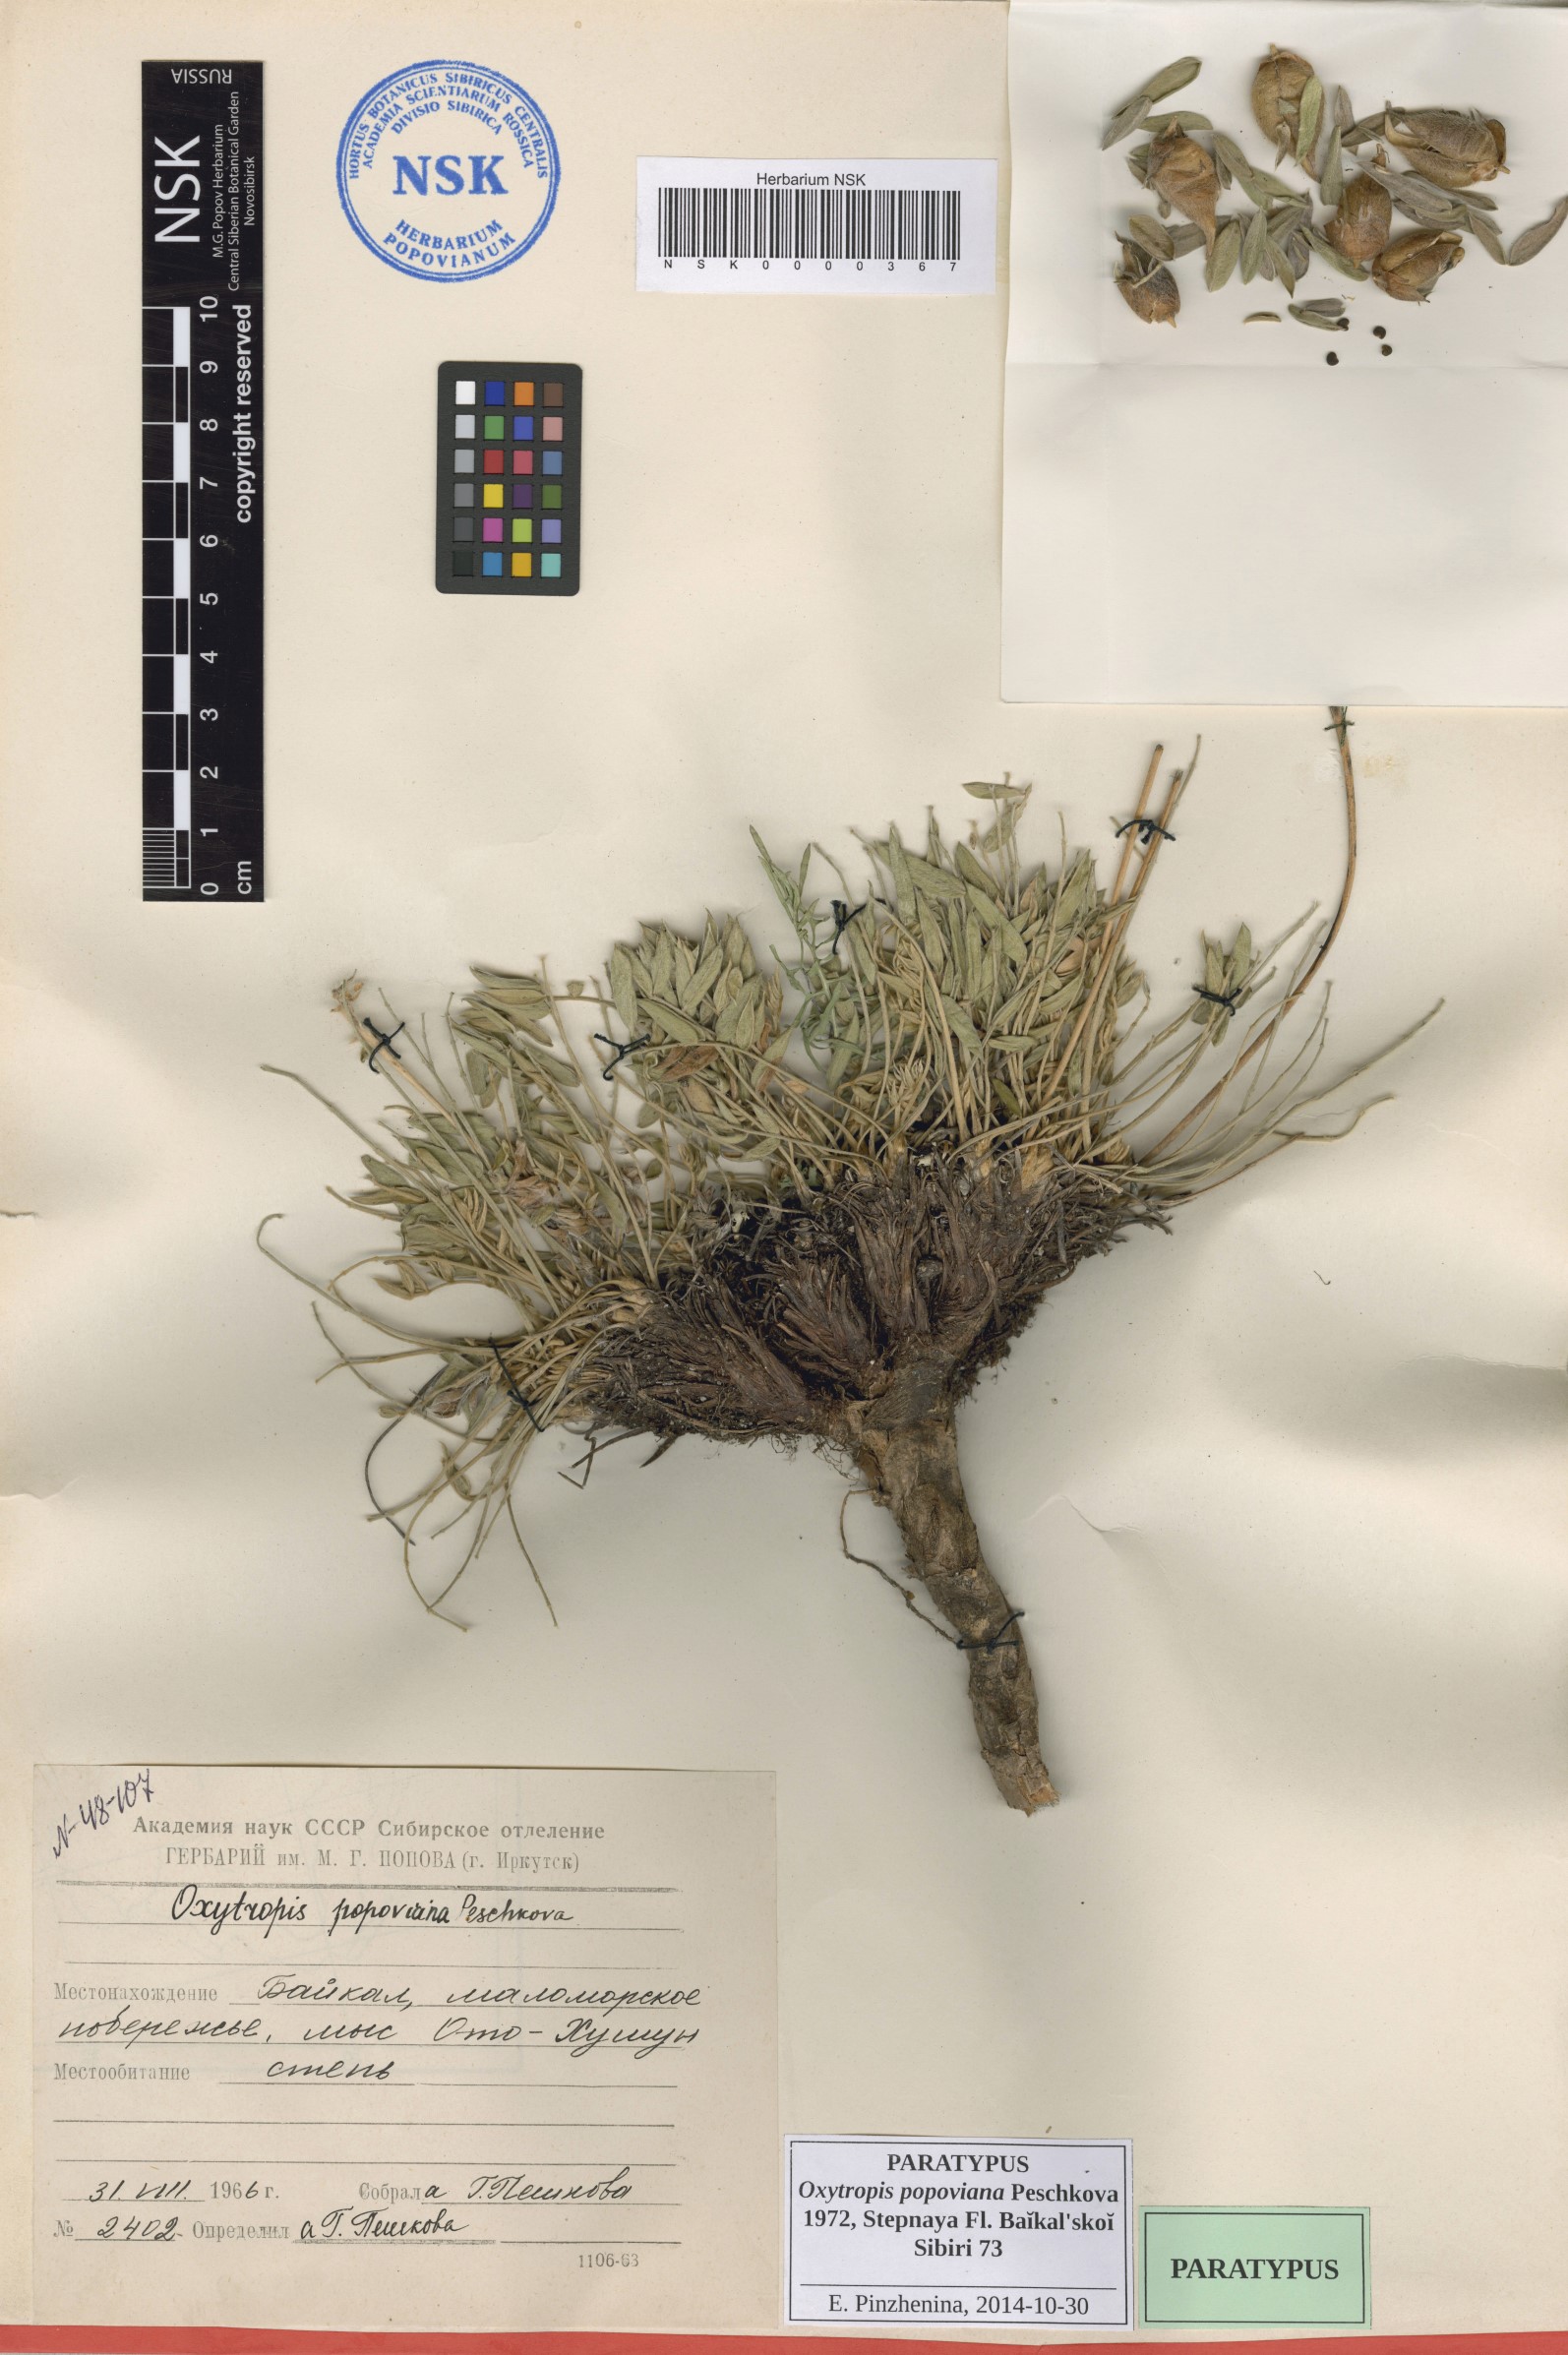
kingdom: Plantae
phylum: Tracheophyta
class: Magnoliopsida
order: Fabales
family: Fabaceae
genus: Oxytropis
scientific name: Oxytropis popoviana
